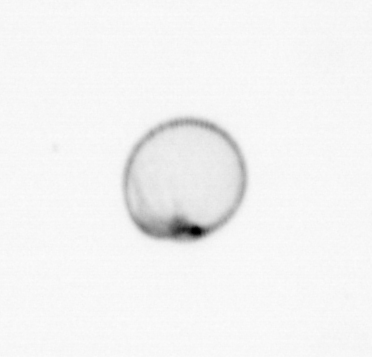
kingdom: Chromista
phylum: Myzozoa
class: Dinophyceae
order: Noctilucales
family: Noctilucaceae
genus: Noctiluca
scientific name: Noctiluca scintillans
